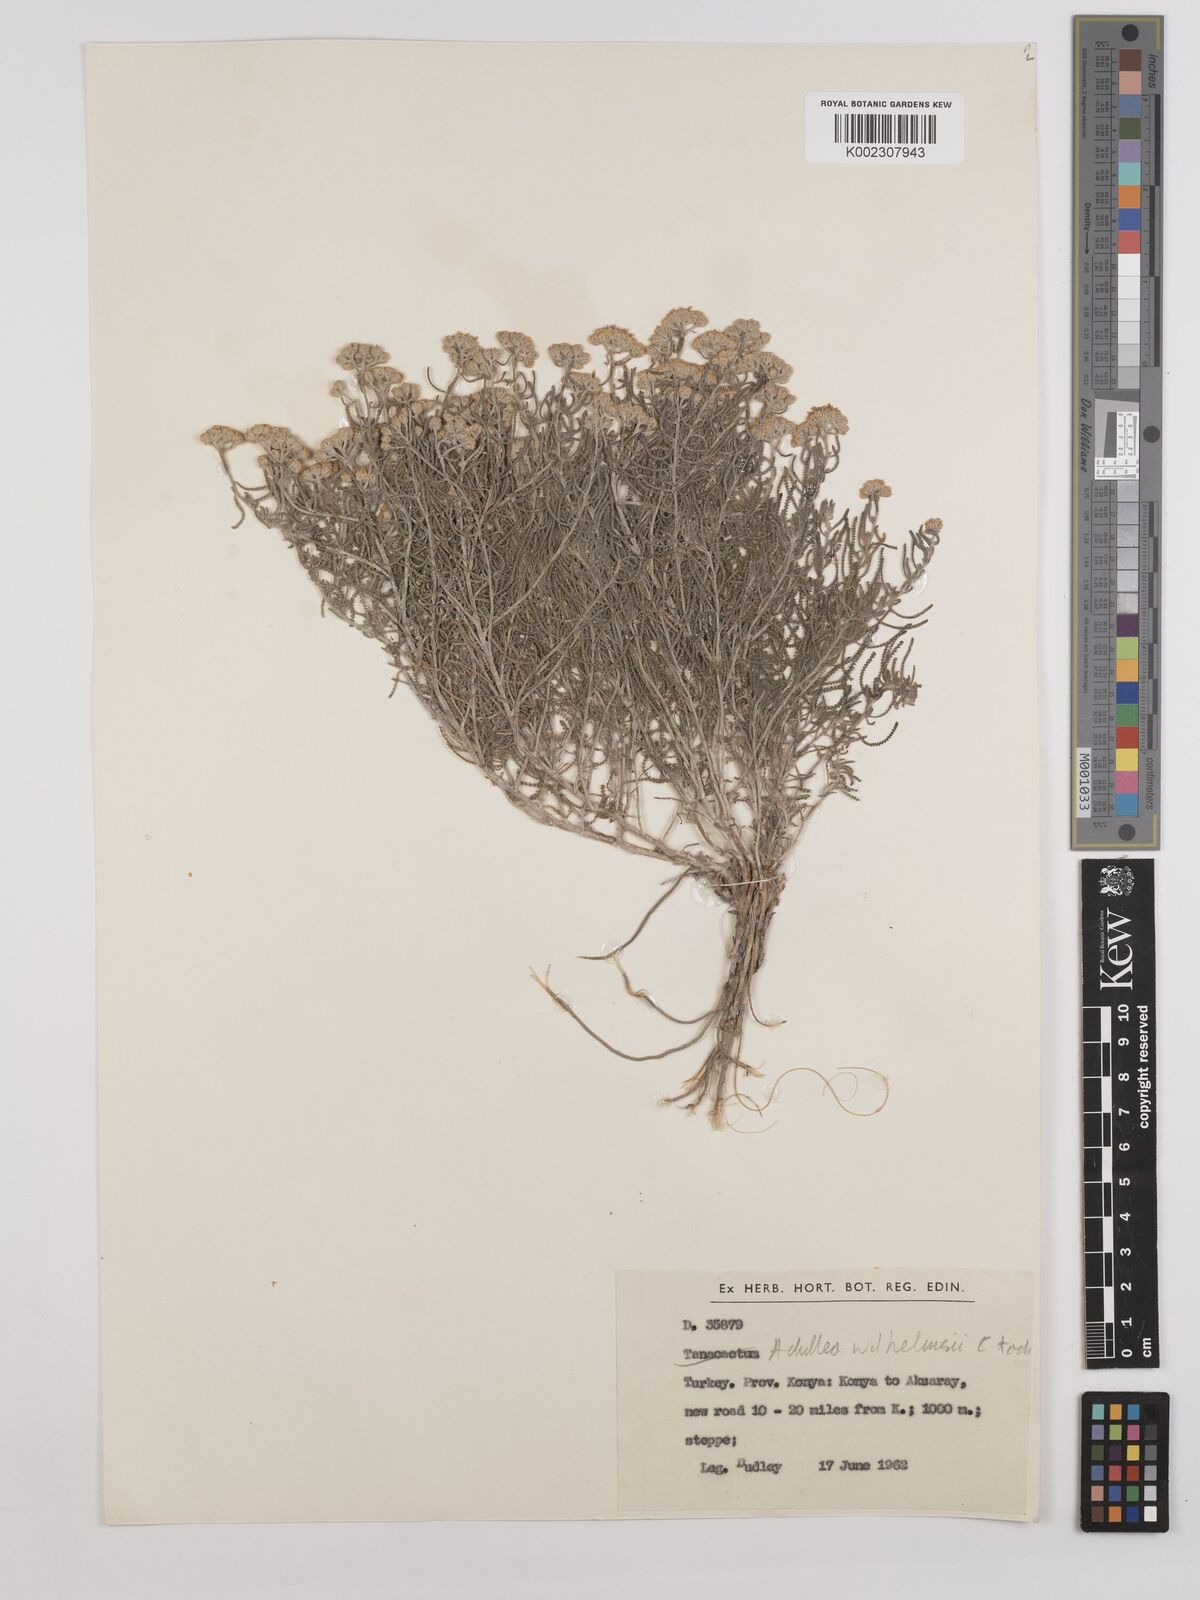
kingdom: Plantae
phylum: Tracheophyta
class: Magnoliopsida
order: Asterales
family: Asteraceae
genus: Achillea
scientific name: Achillea tenuifolia
